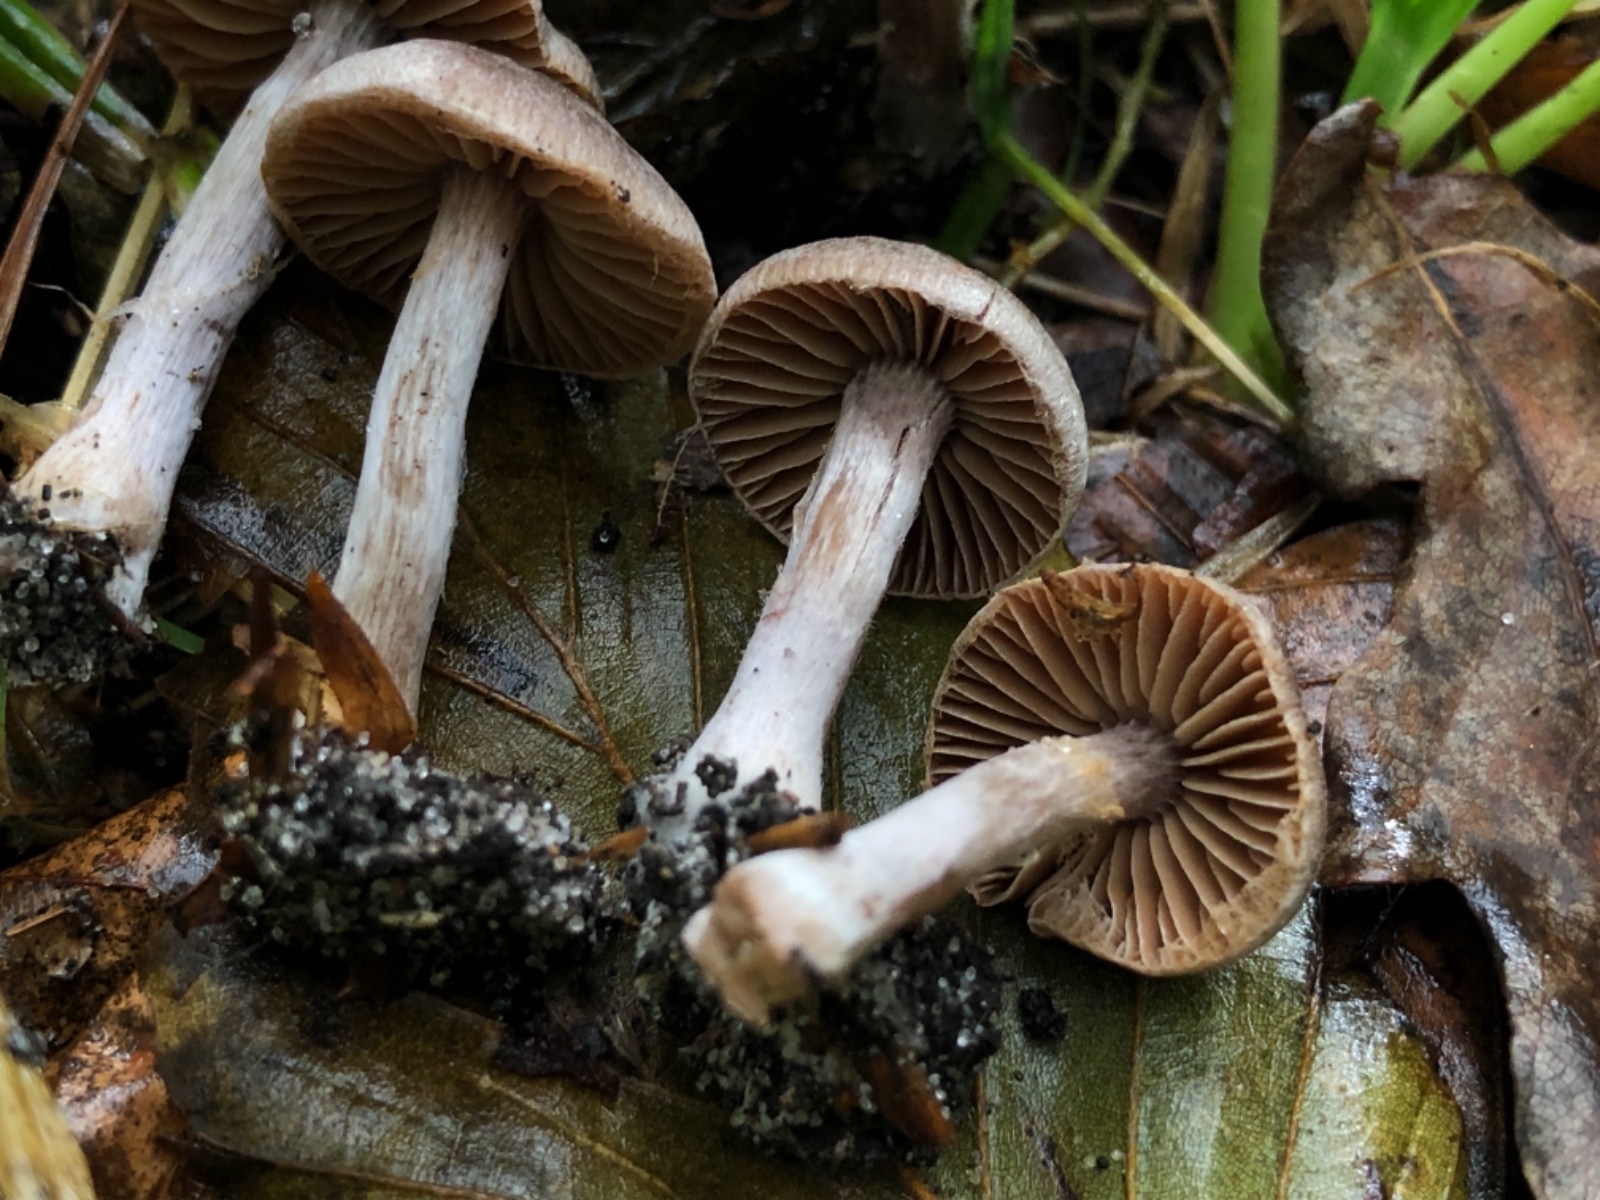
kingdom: Fungi
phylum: Basidiomycota
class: Agaricomycetes
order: Agaricales
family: Cortinariaceae
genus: Cortinarius
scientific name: Cortinarius decipientoides
